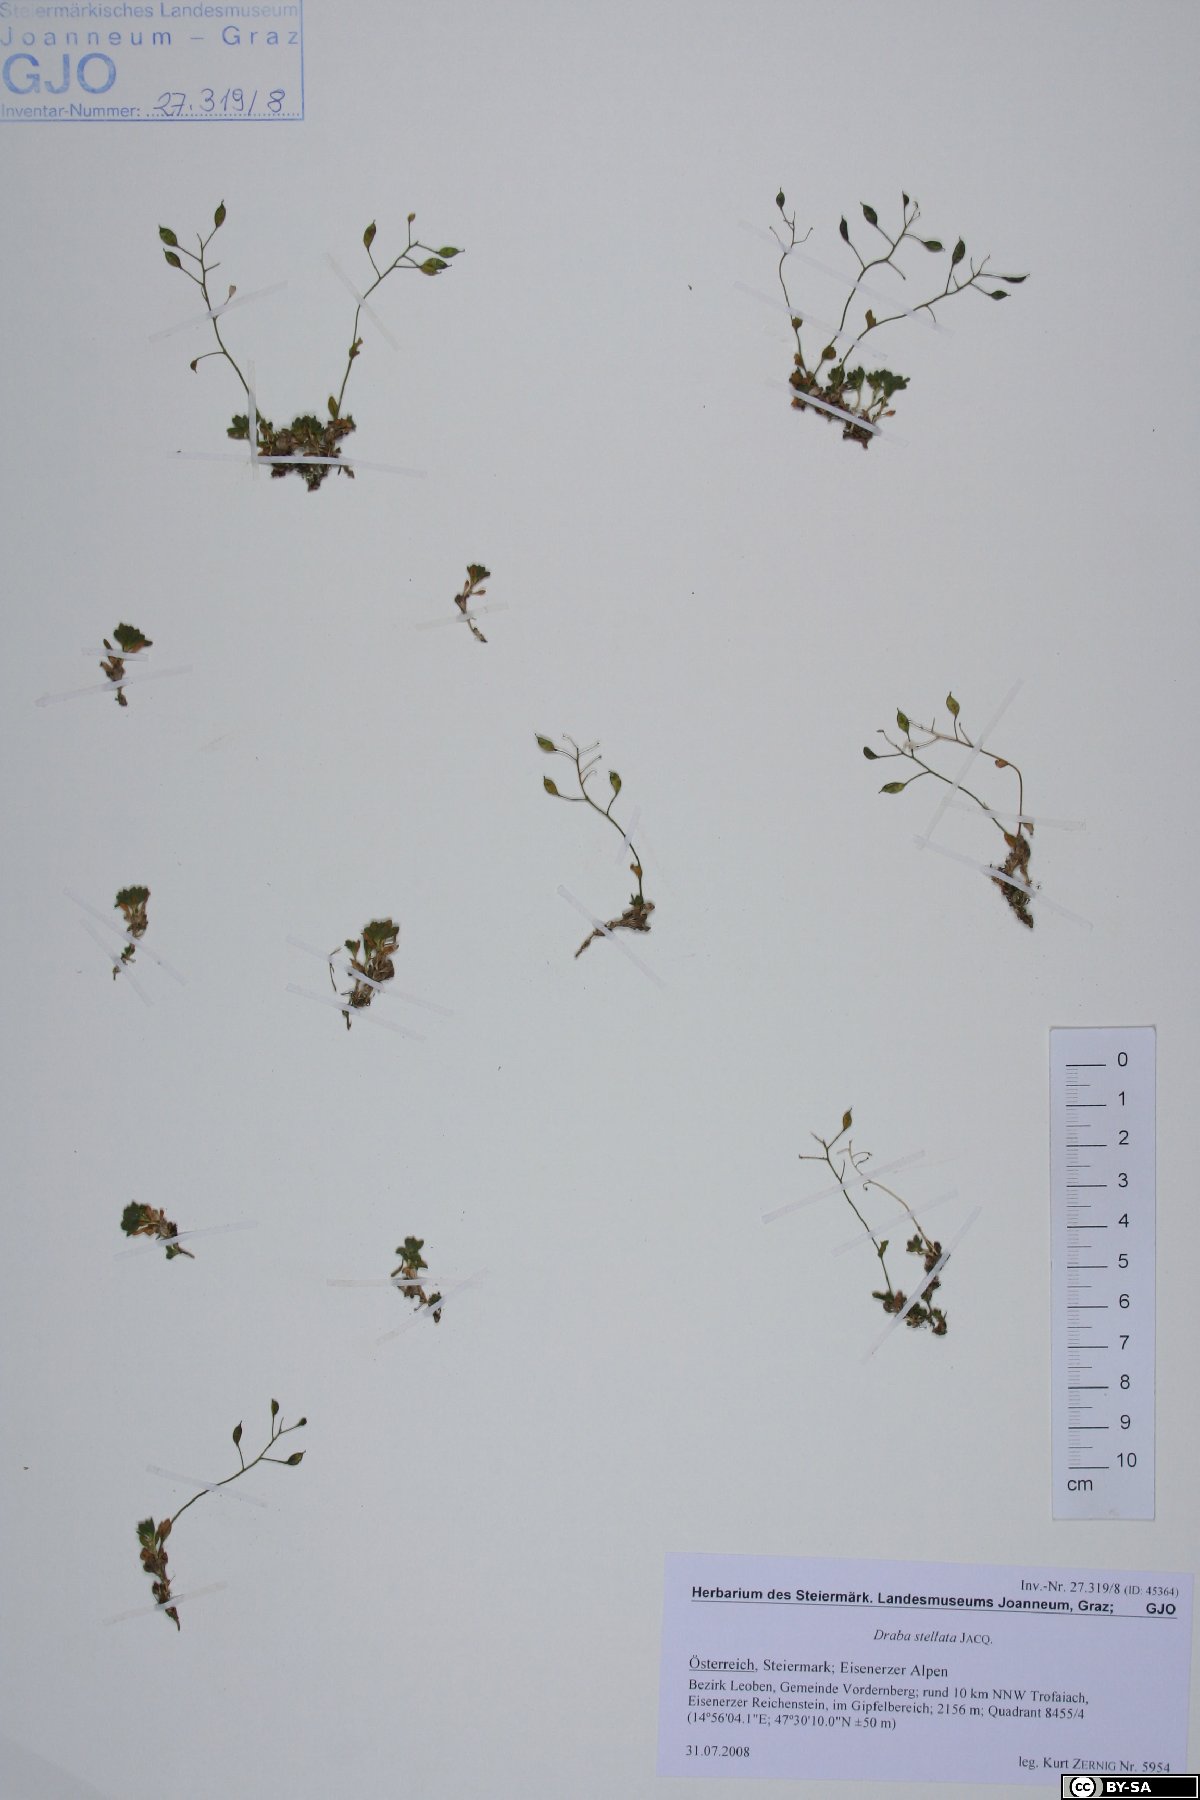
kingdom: Plantae
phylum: Tracheophyta
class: Magnoliopsida
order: Brassicales
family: Brassicaceae
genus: Draba
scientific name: Draba stellata
